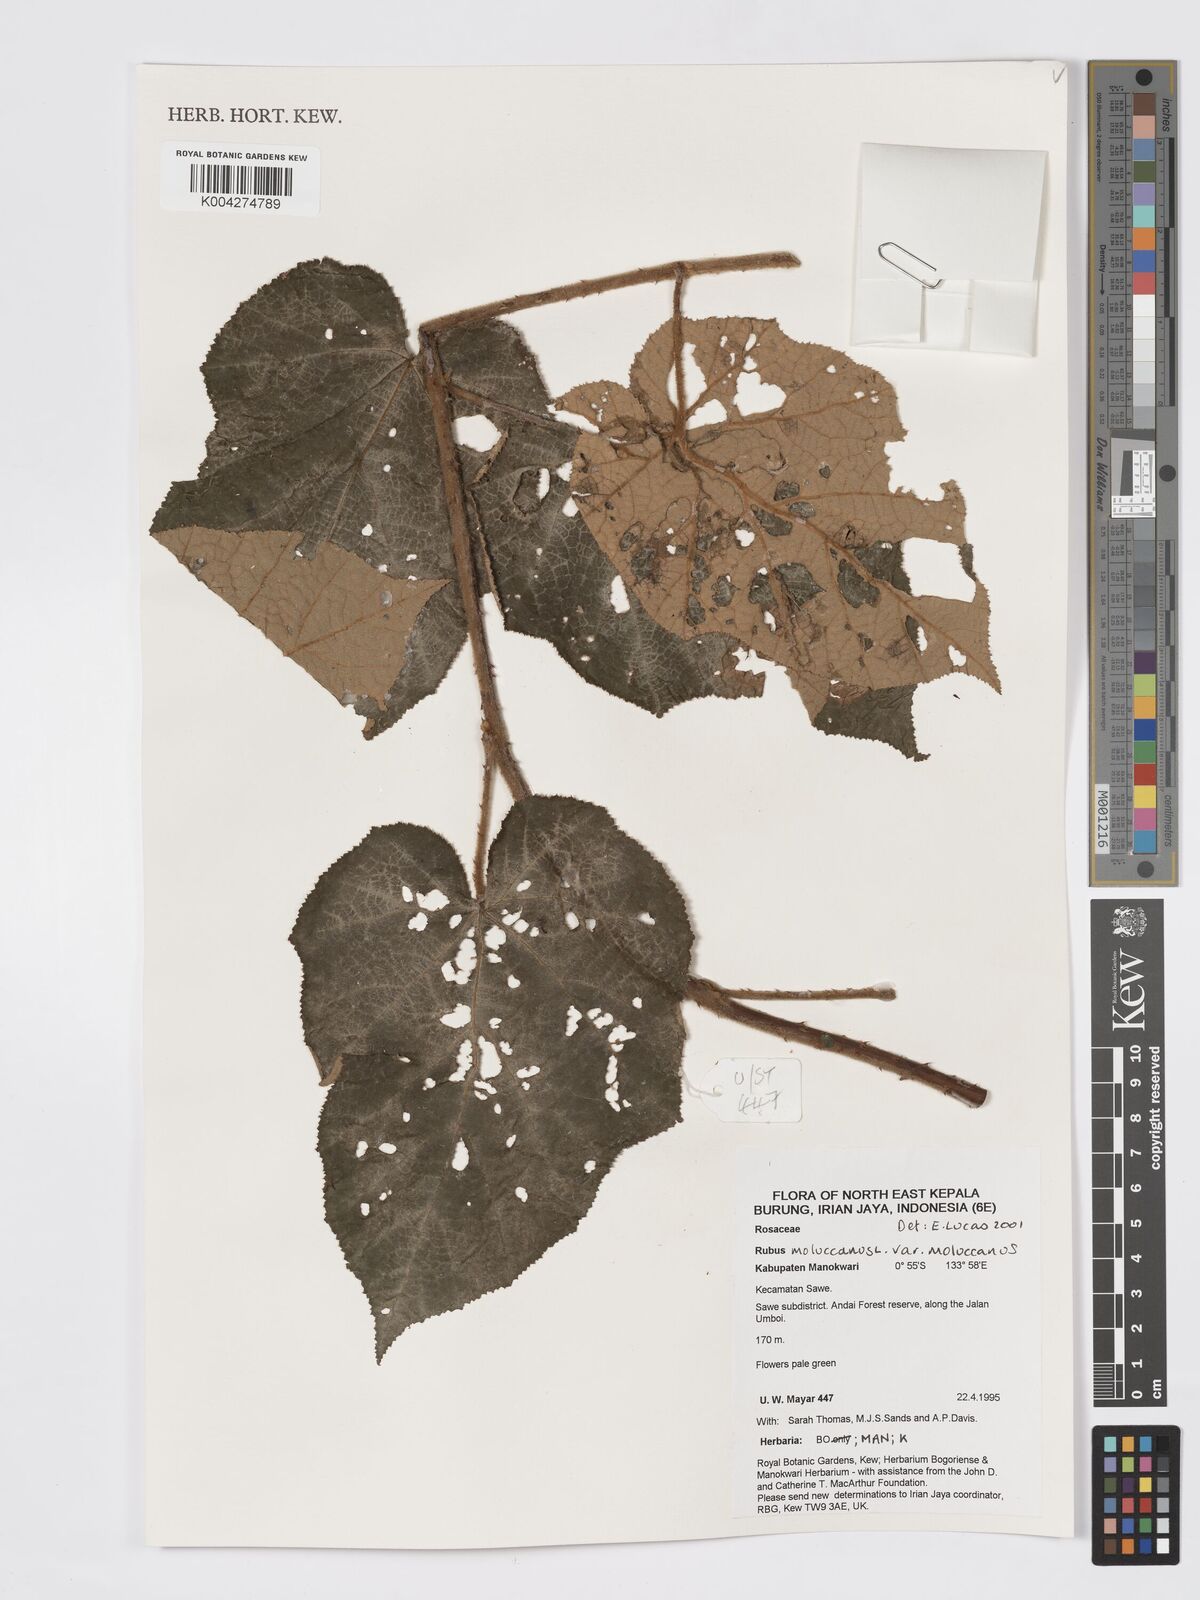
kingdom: Plantae
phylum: Tracheophyta
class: Magnoliopsida
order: Rosales
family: Rosaceae
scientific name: Rosaceae
